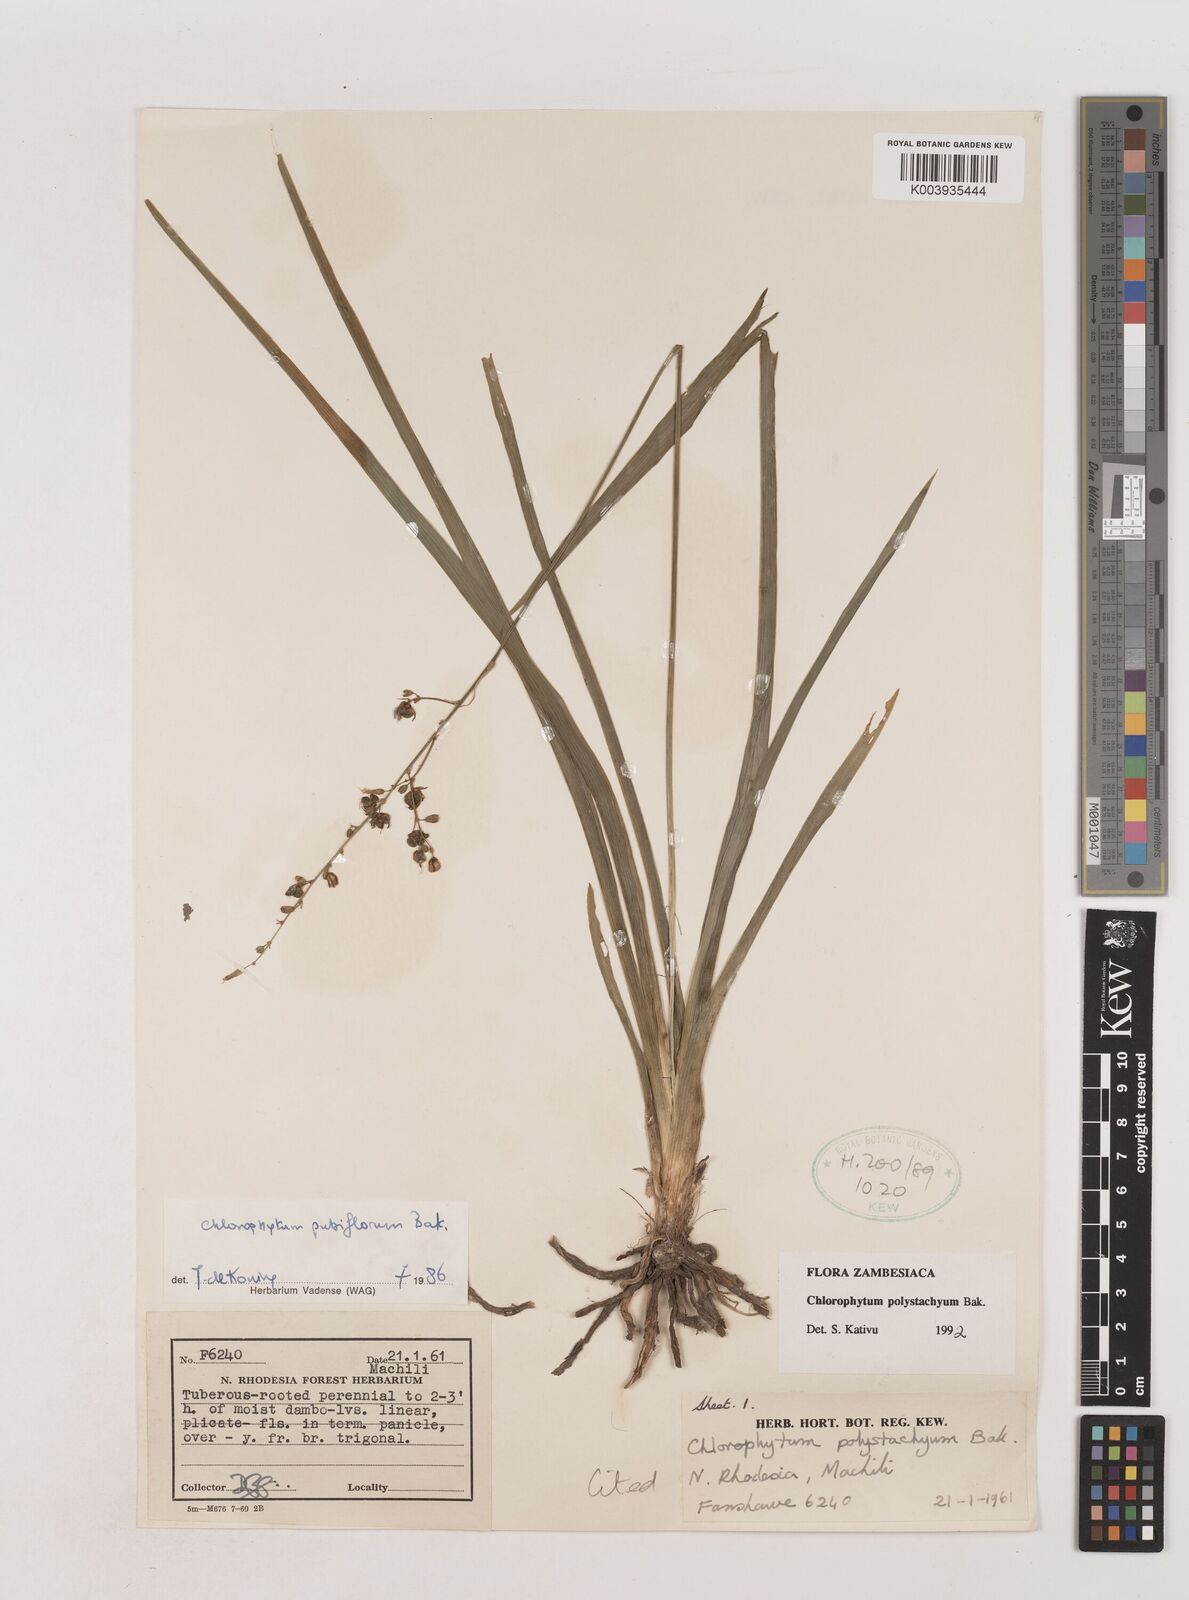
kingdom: Plantae
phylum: Tracheophyta
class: Liliopsida
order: Asparagales
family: Asparagaceae
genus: Chlorophytum
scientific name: Chlorophytum polystachys
